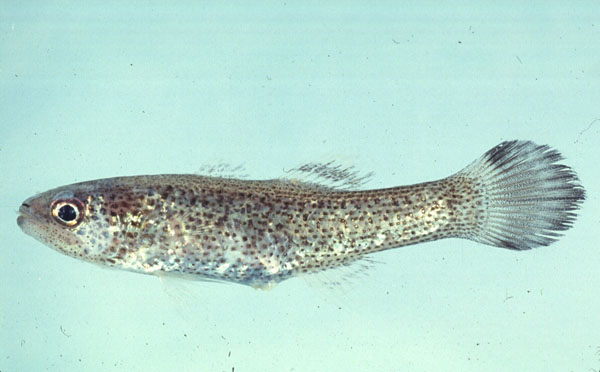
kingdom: Animalia
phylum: Chordata
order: Perciformes
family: Apogonidae
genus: Pseudamia
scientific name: Pseudamia gelatinosa
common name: Gelatinous cardinalfish
